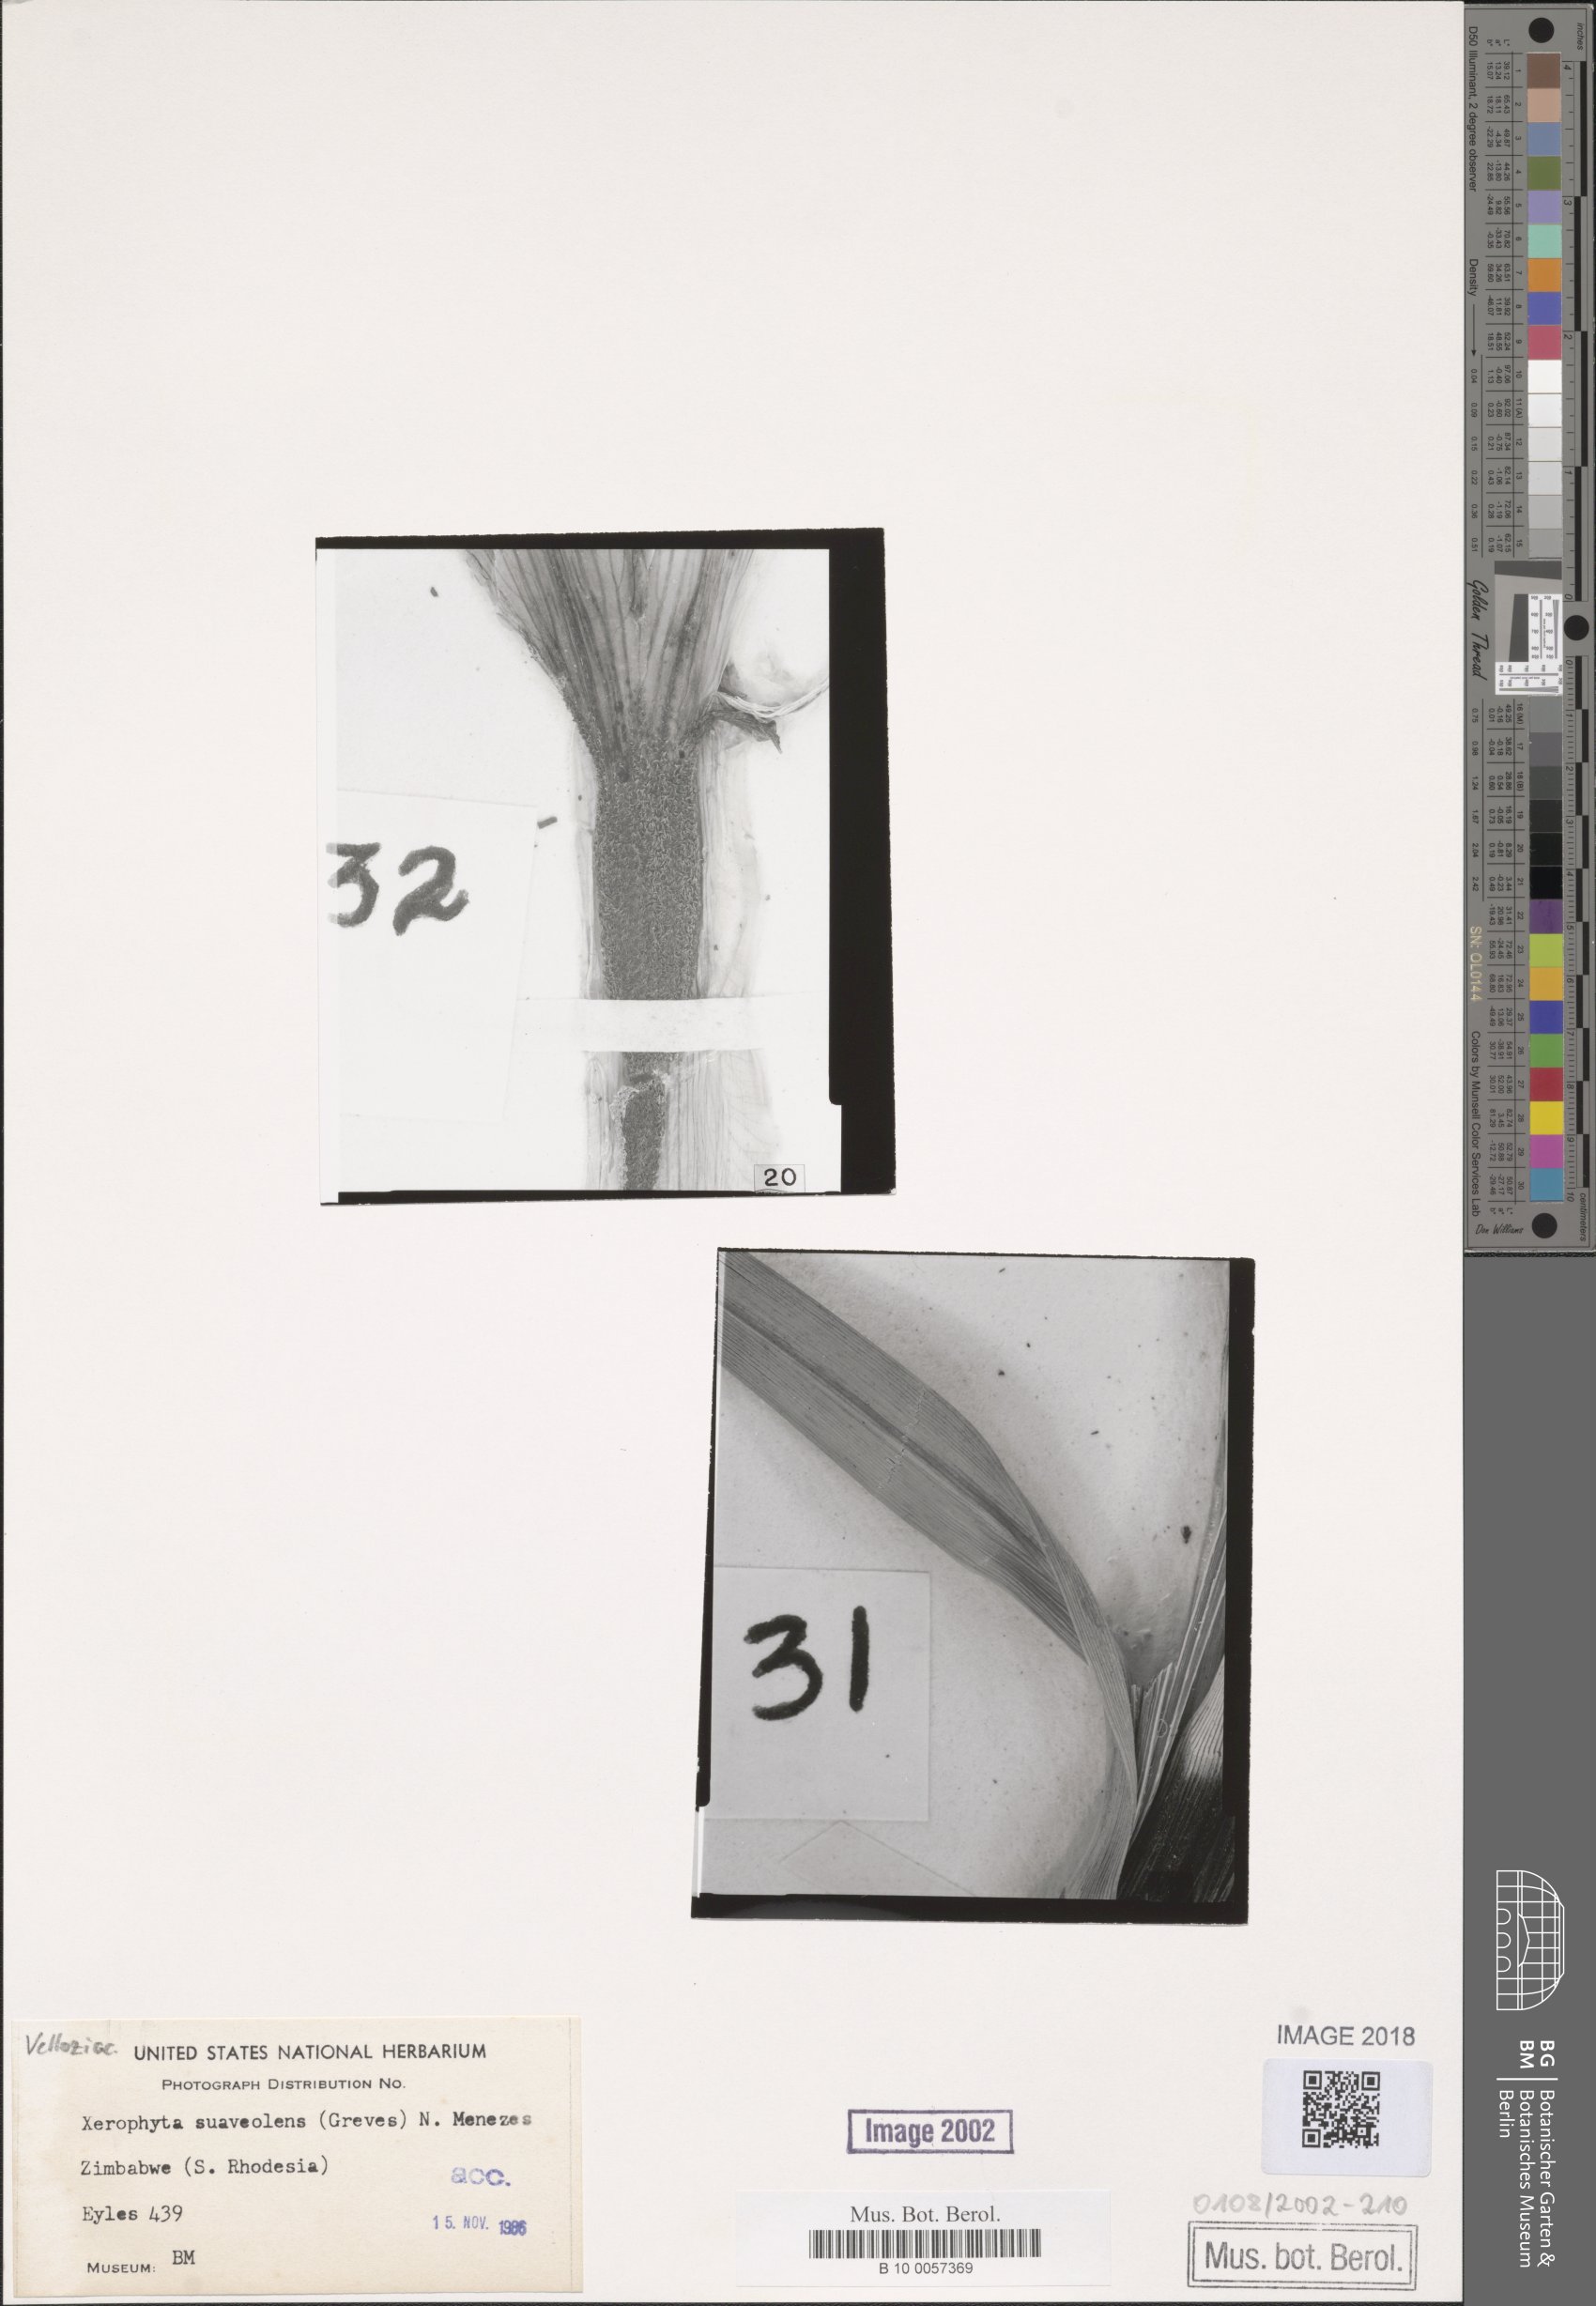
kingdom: Plantae
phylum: Tracheophyta
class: Liliopsida
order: Pandanales
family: Velloziaceae
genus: Xerophyta
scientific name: Xerophyta suaveolens
